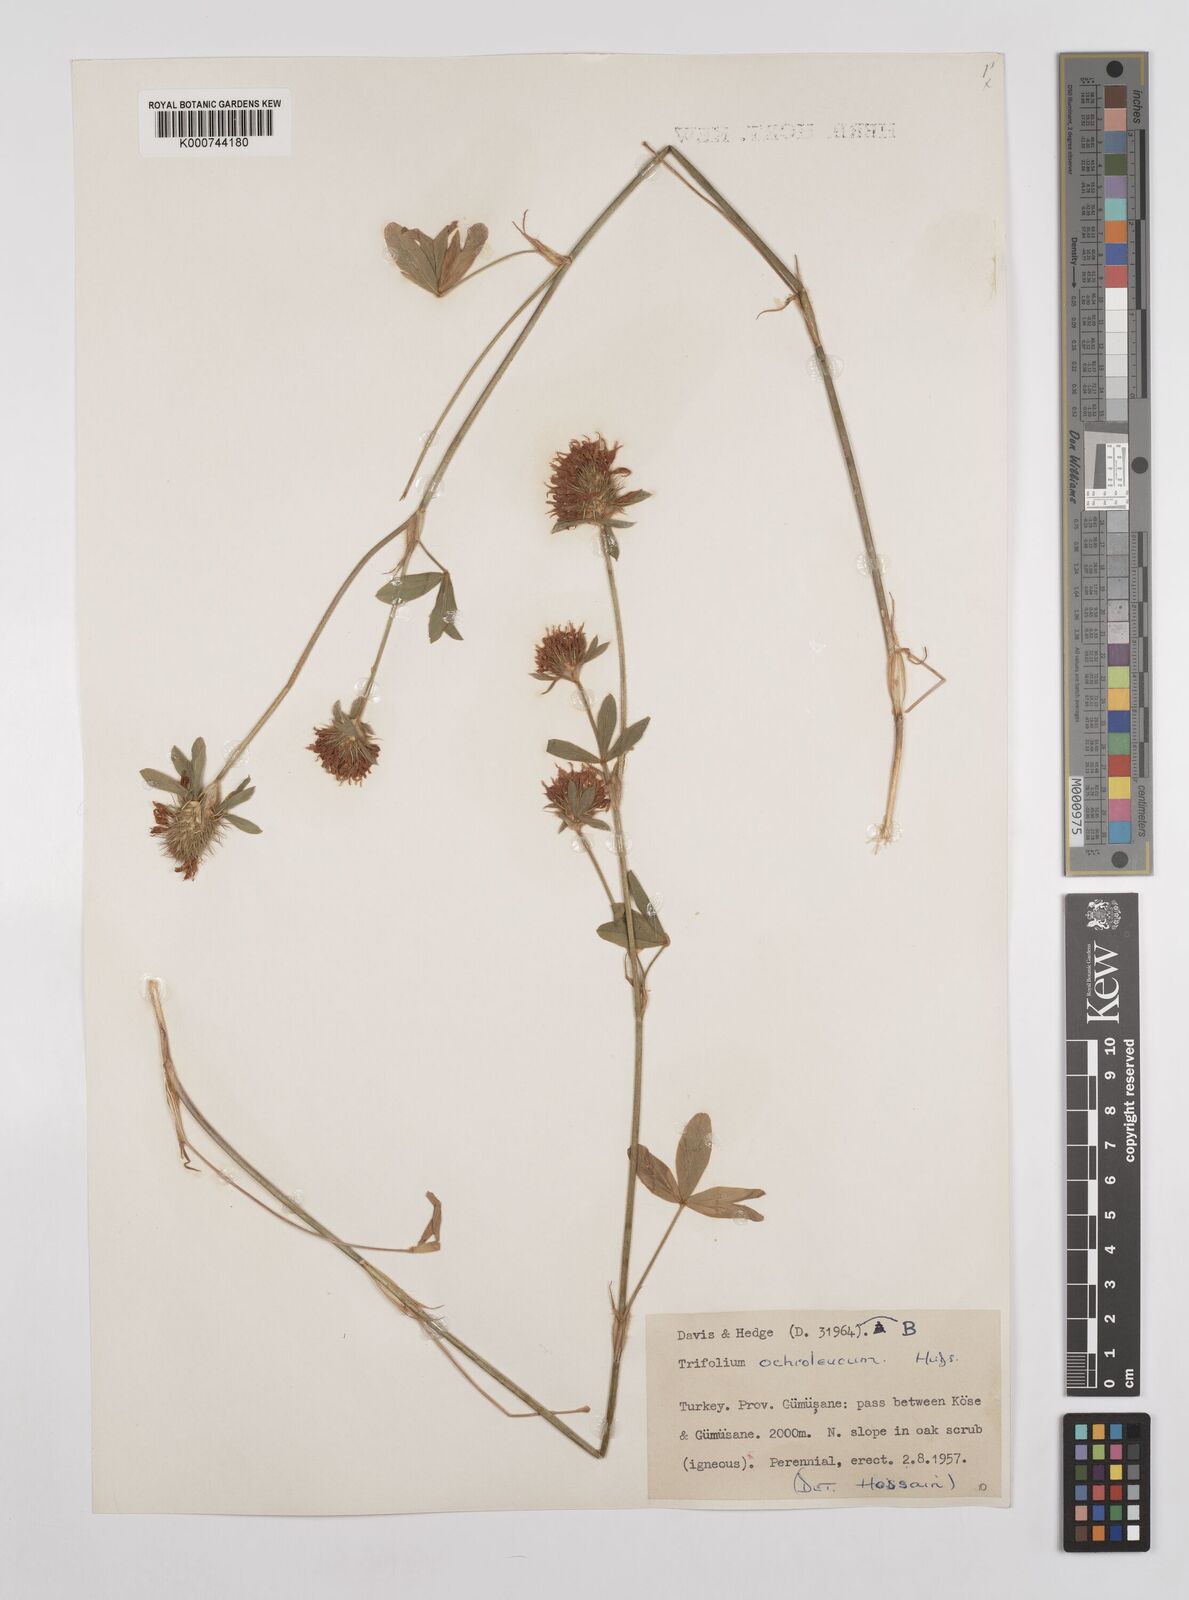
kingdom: Plantae
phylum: Tracheophyta
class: Magnoliopsida
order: Fabales
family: Fabaceae
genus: Trifolium
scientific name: Trifolium
